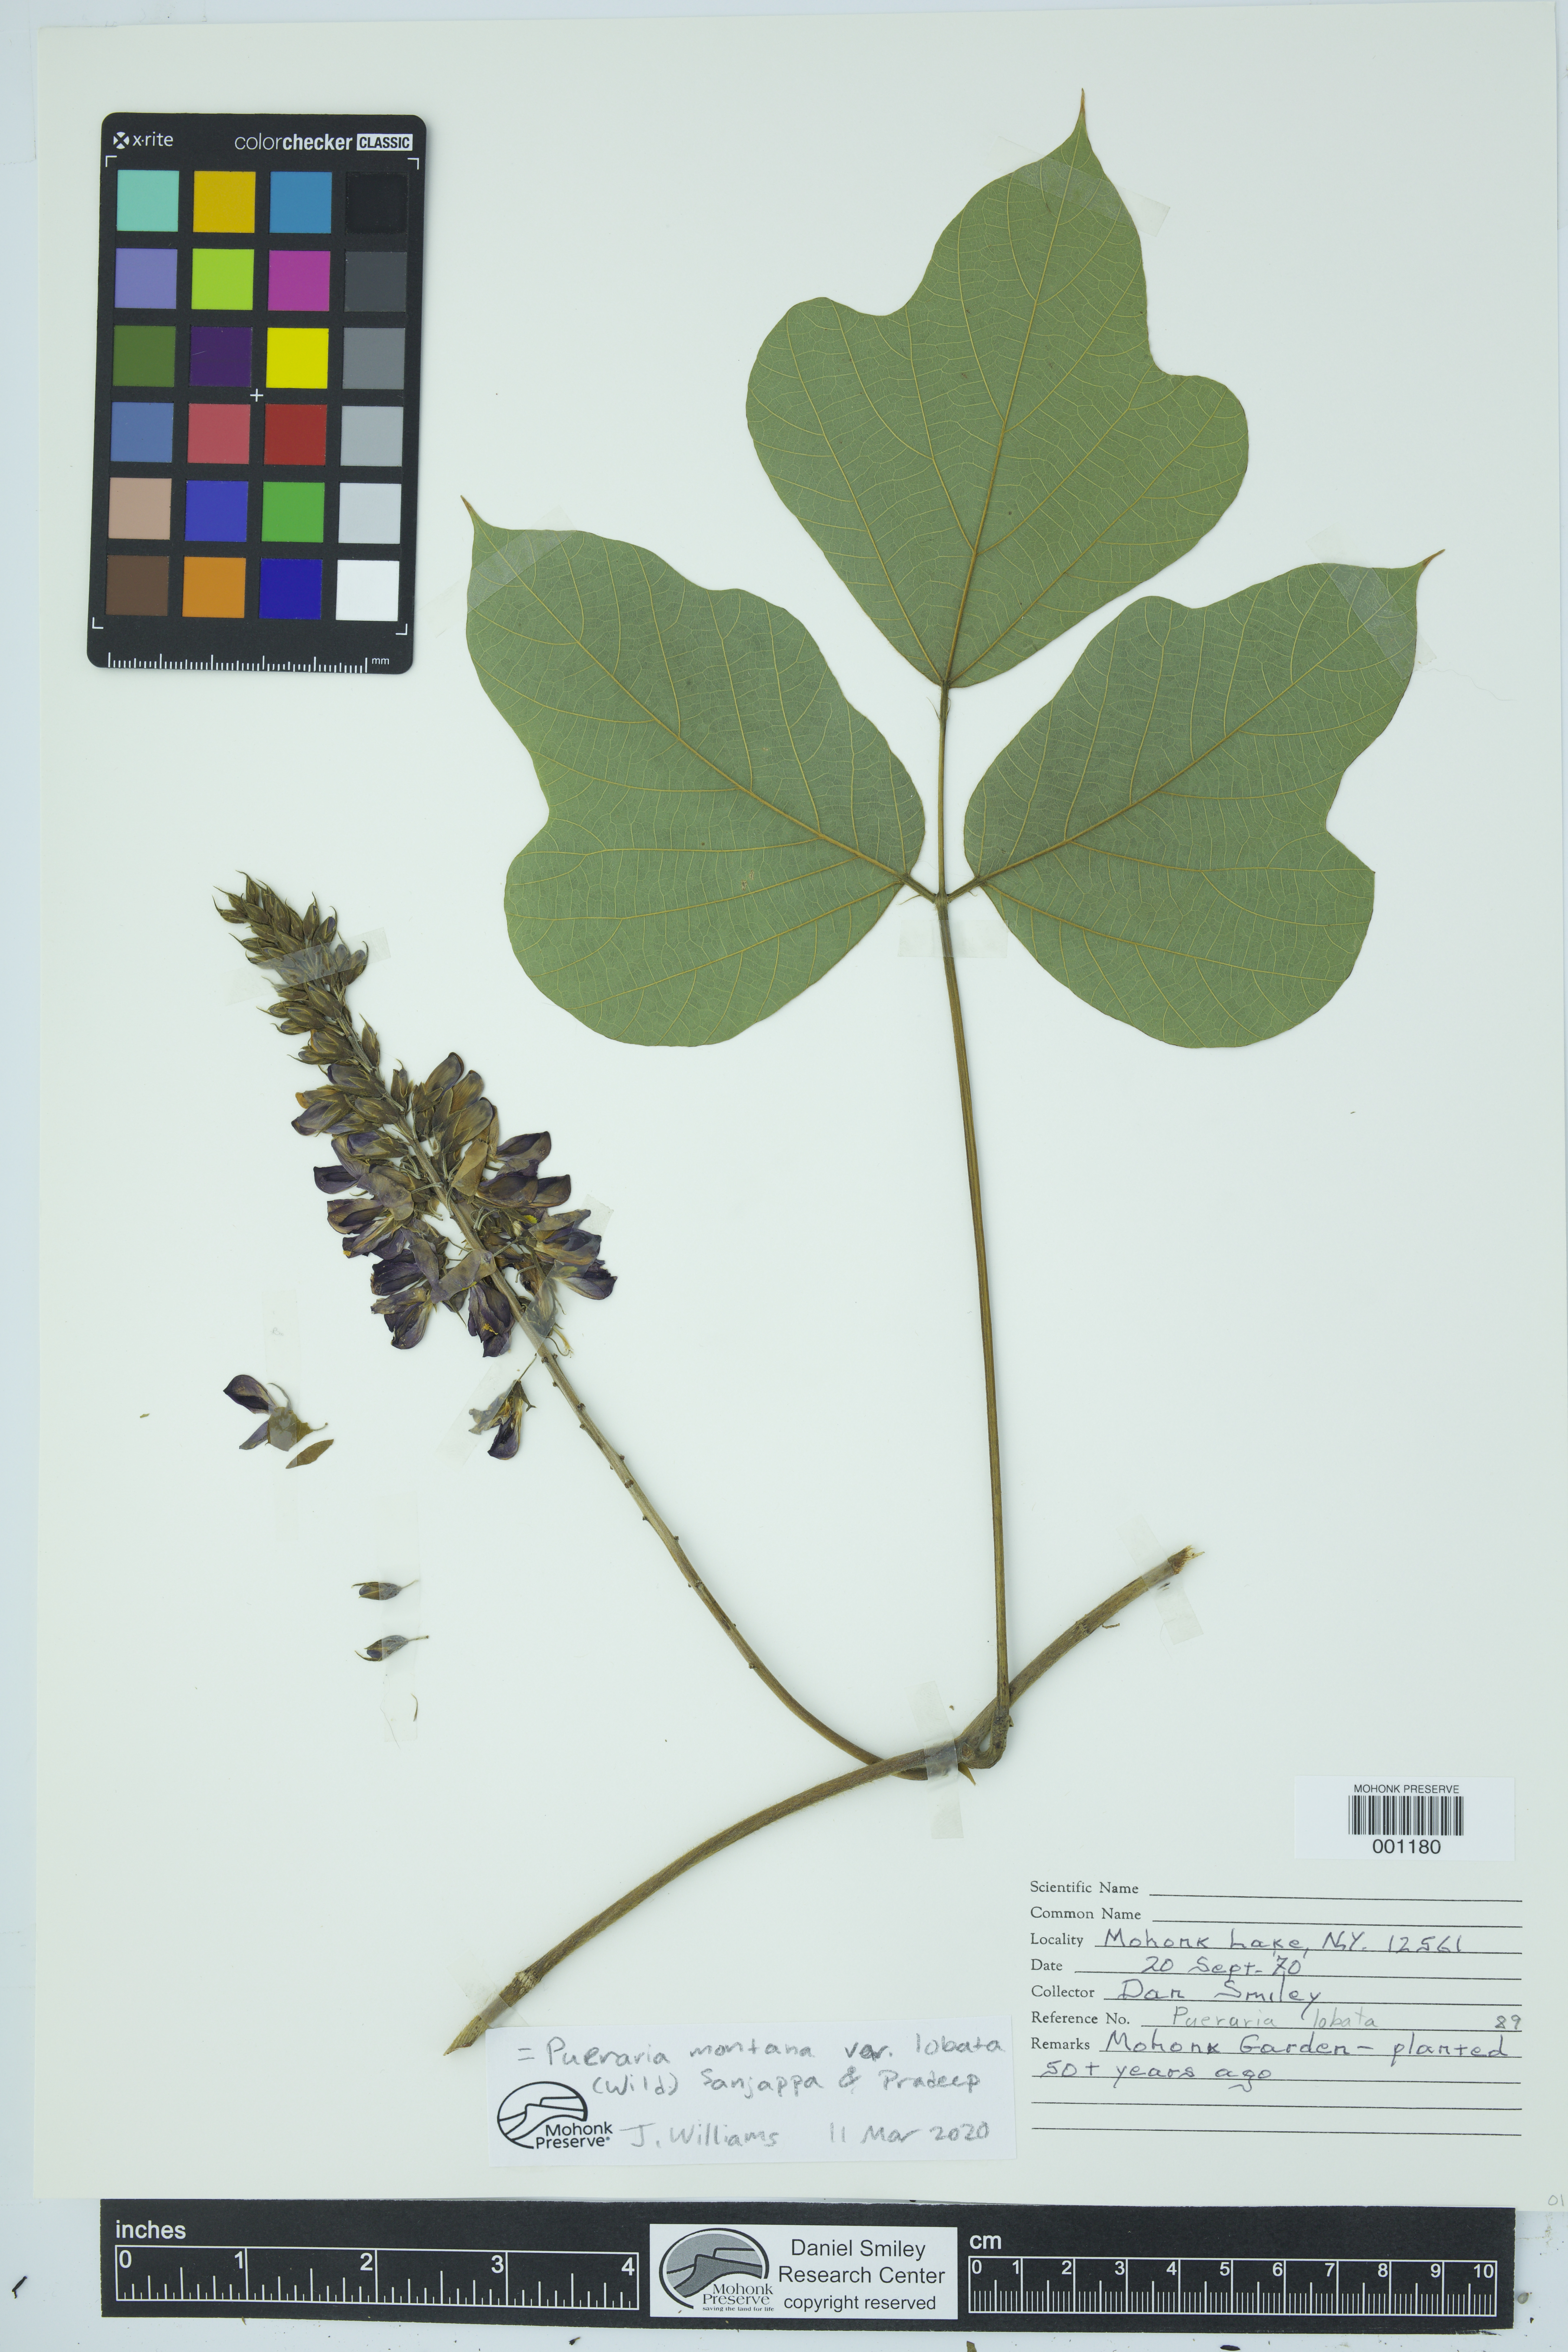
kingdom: Plantae
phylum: Tracheophyta
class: Magnoliopsida
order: Fabales
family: Fabaceae
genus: Pueraria
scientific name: Pueraria montana
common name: Kudzu
